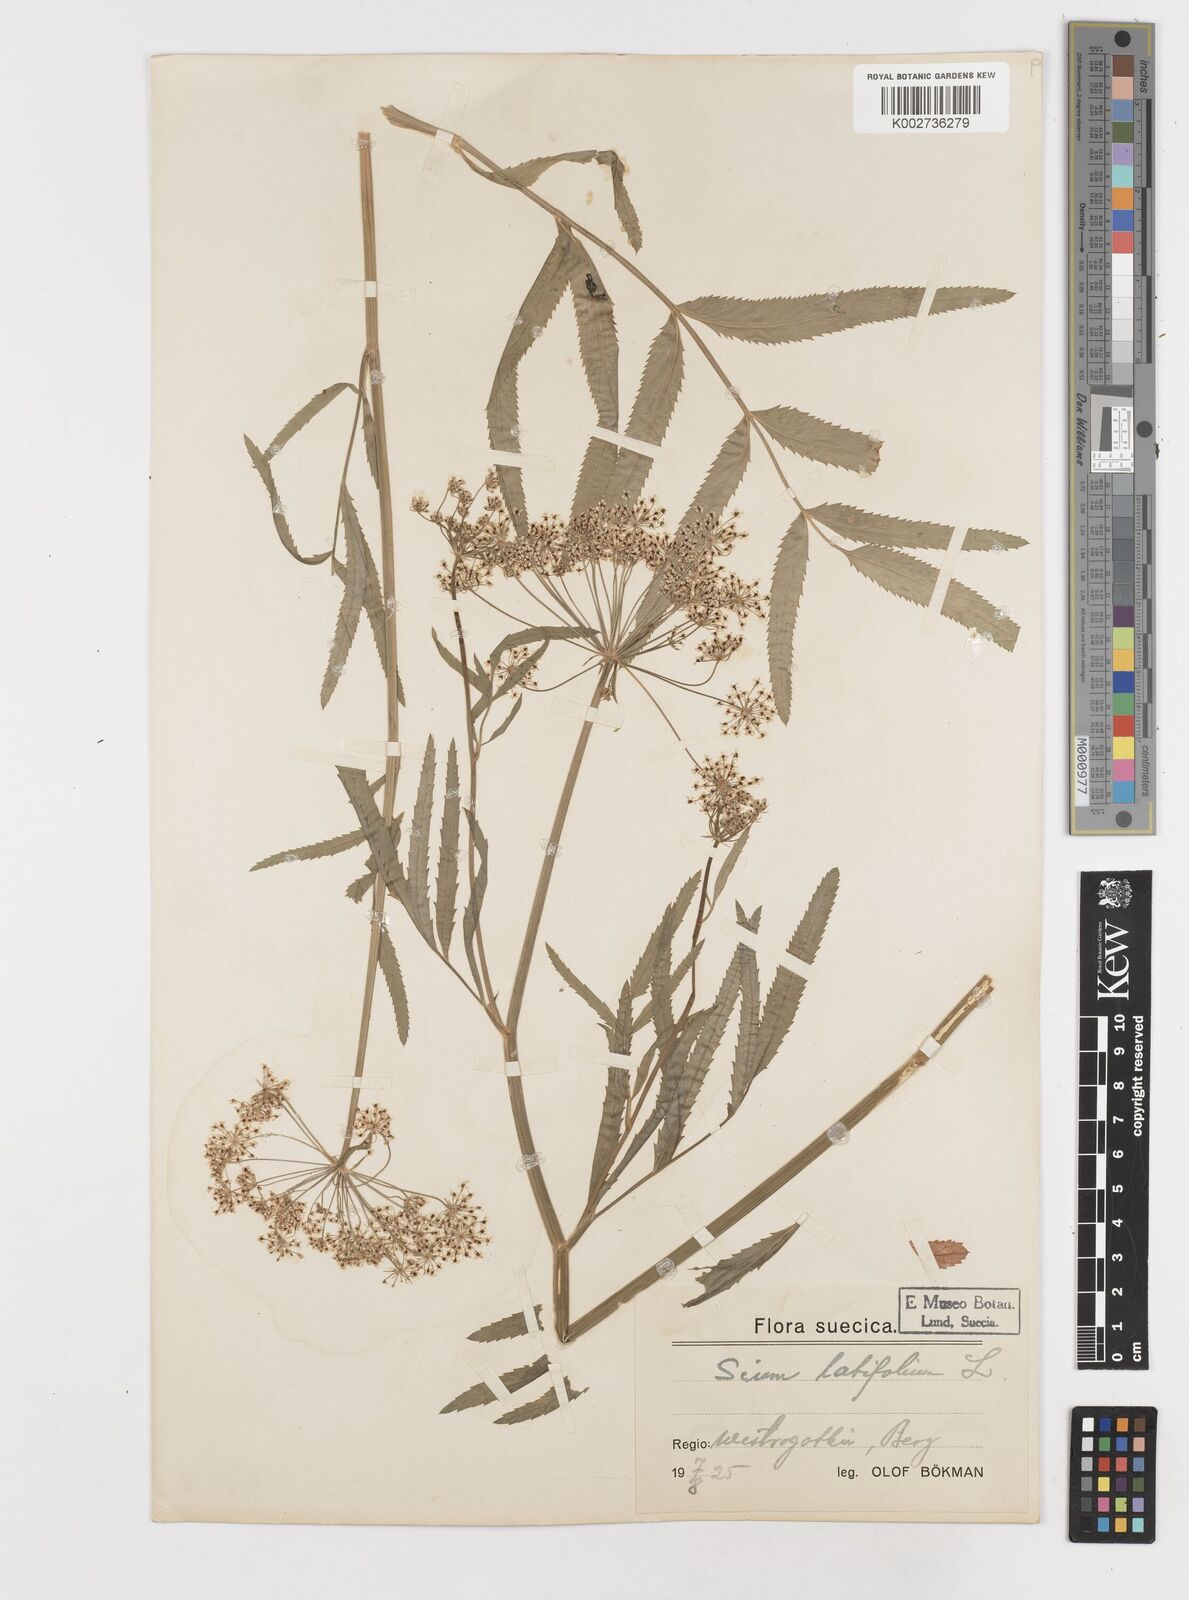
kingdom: Plantae
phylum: Tracheophyta
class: Magnoliopsida
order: Apiales
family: Apiaceae
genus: Sium
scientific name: Sium latifolium
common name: Greater water-parsnip
